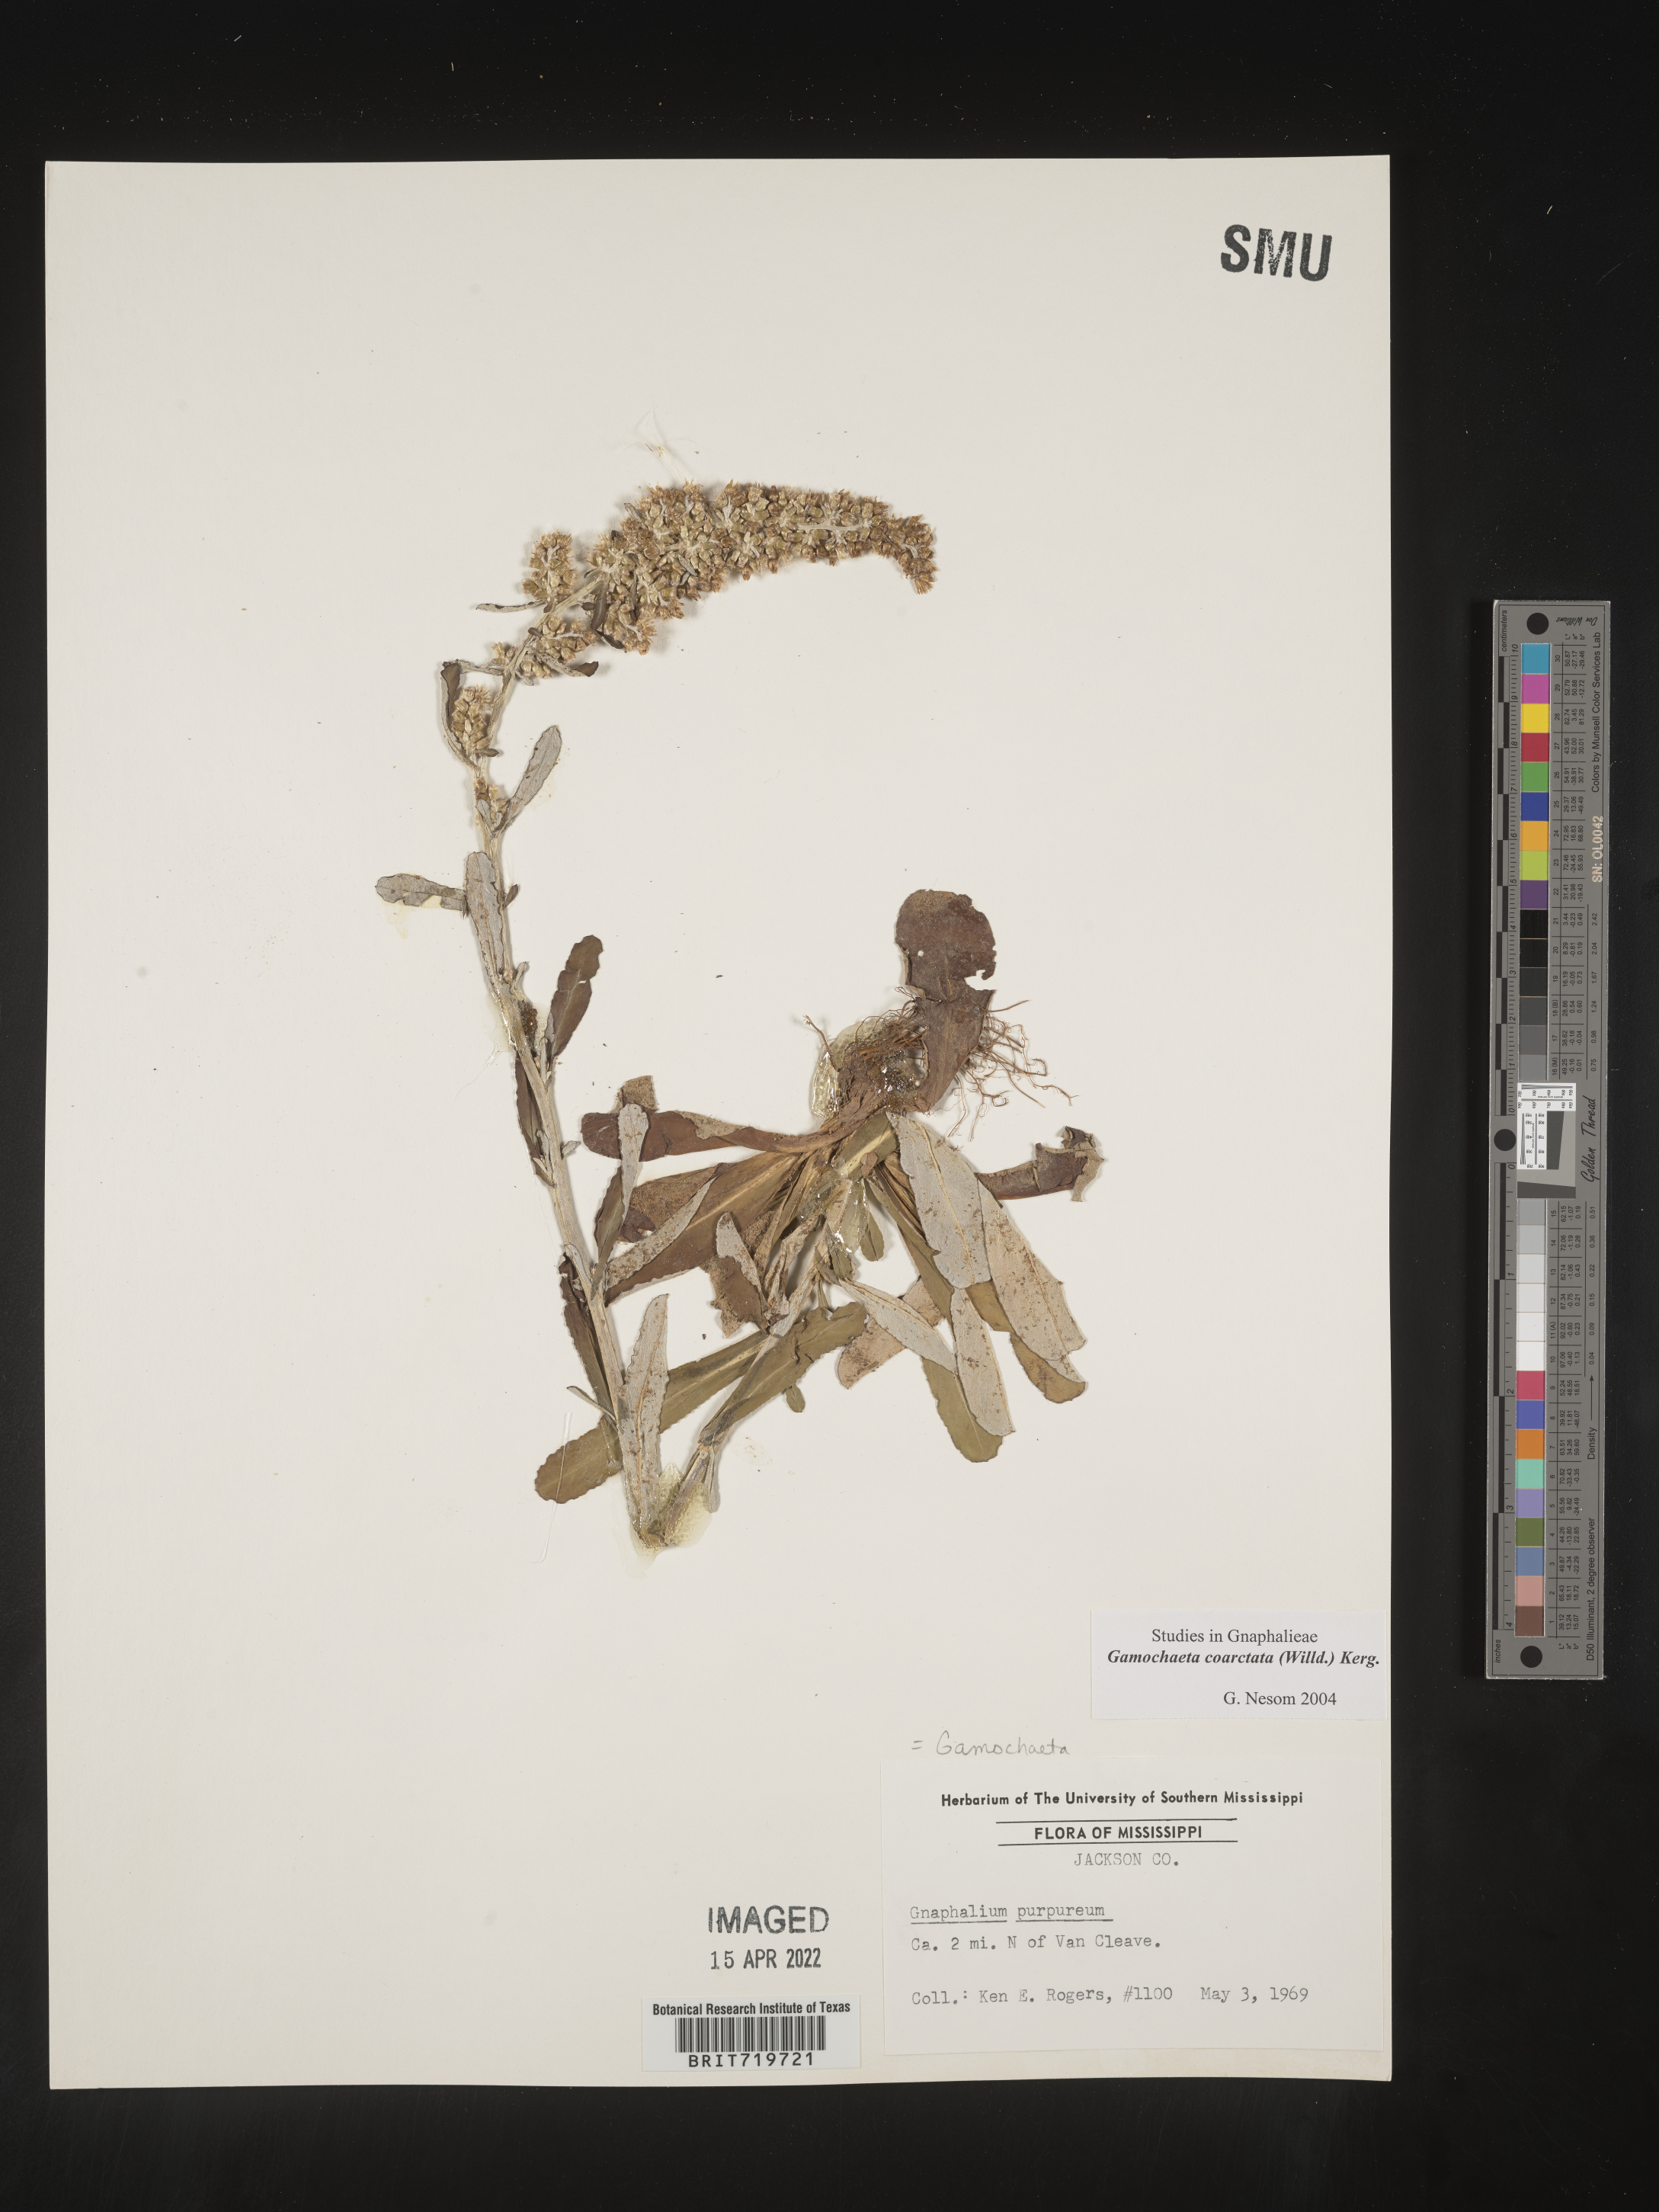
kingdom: Plantae
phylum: Tracheophyta
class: Magnoliopsida
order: Asterales
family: Asteraceae
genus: Gamochaeta
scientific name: Gamochaeta americana
